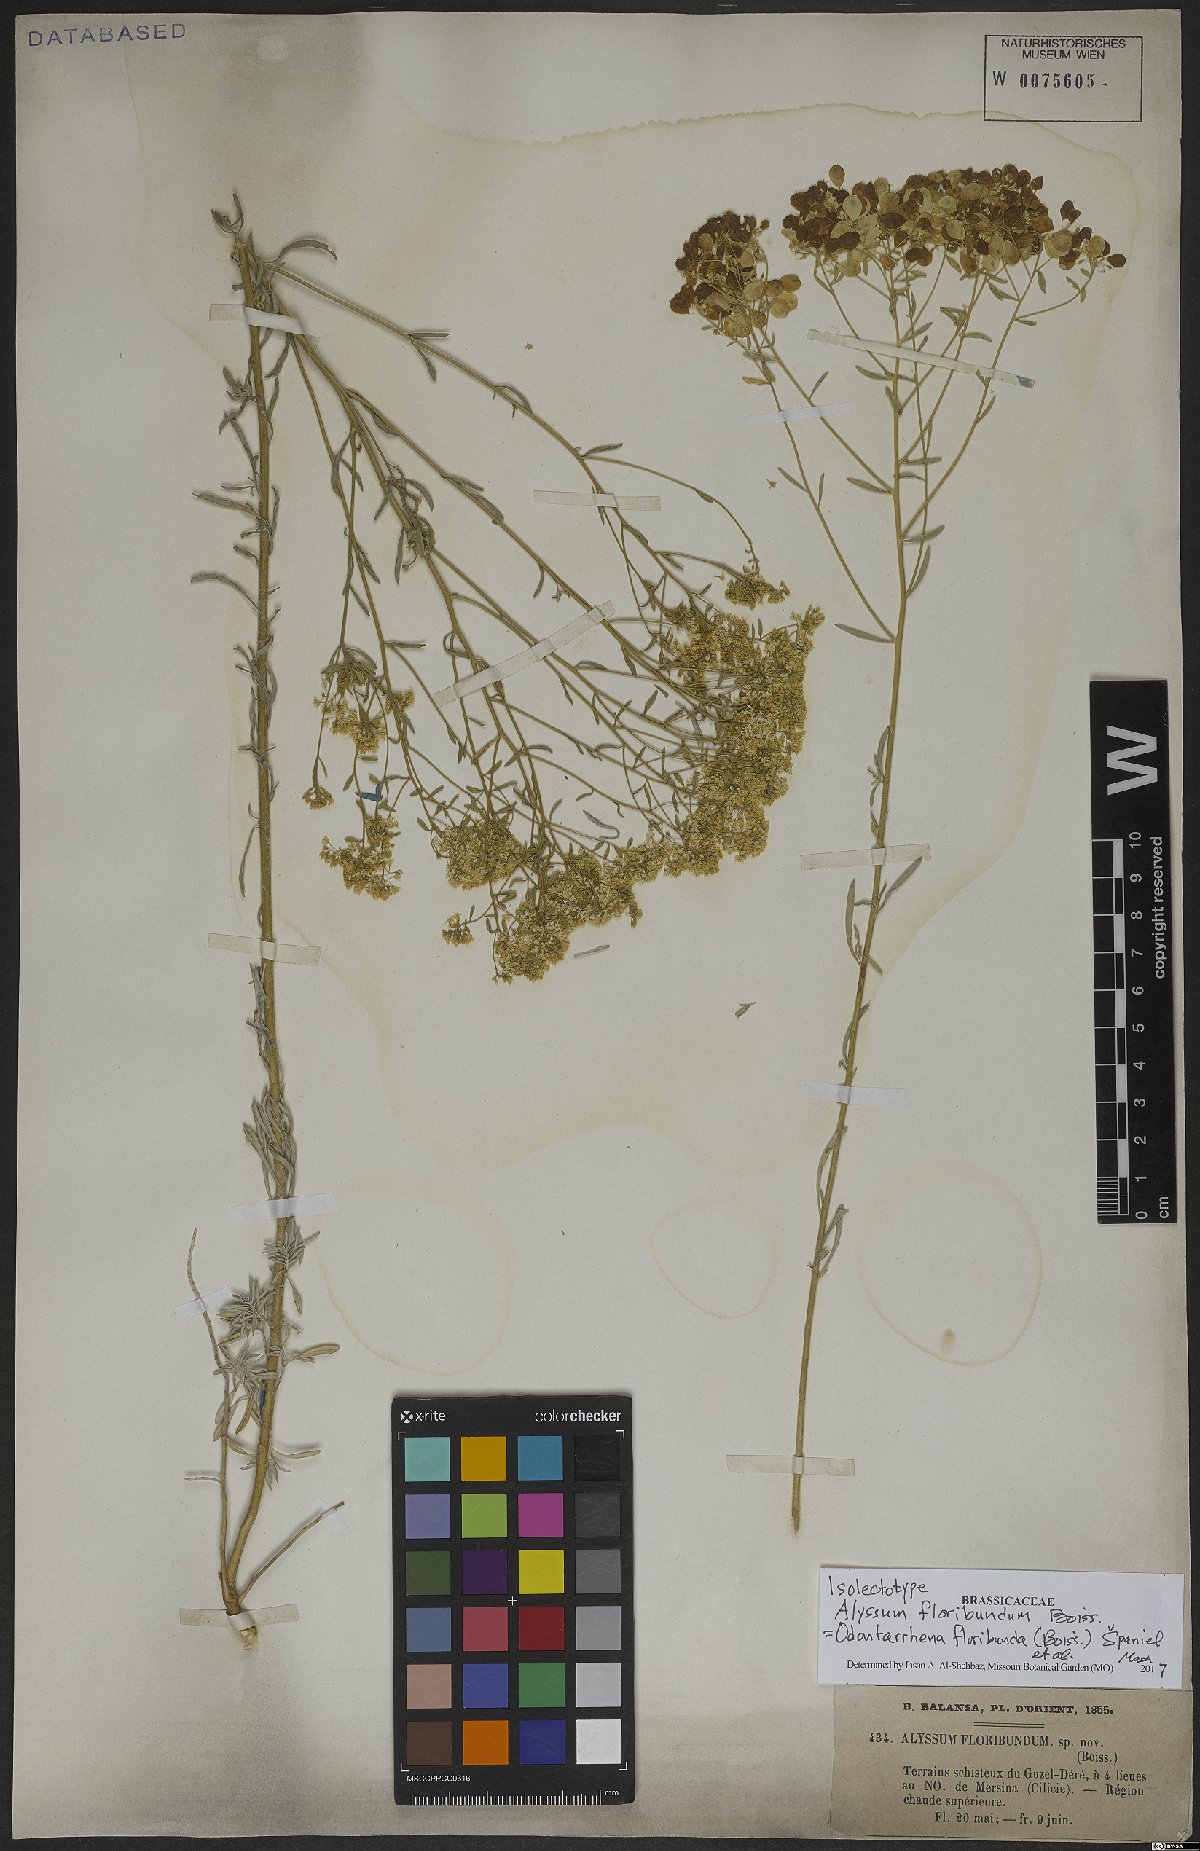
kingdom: Plantae
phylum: Tracheophyta
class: Magnoliopsida
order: Brassicales
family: Brassicaceae
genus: Odontarrhena
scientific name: Odontarrhena floribunda
